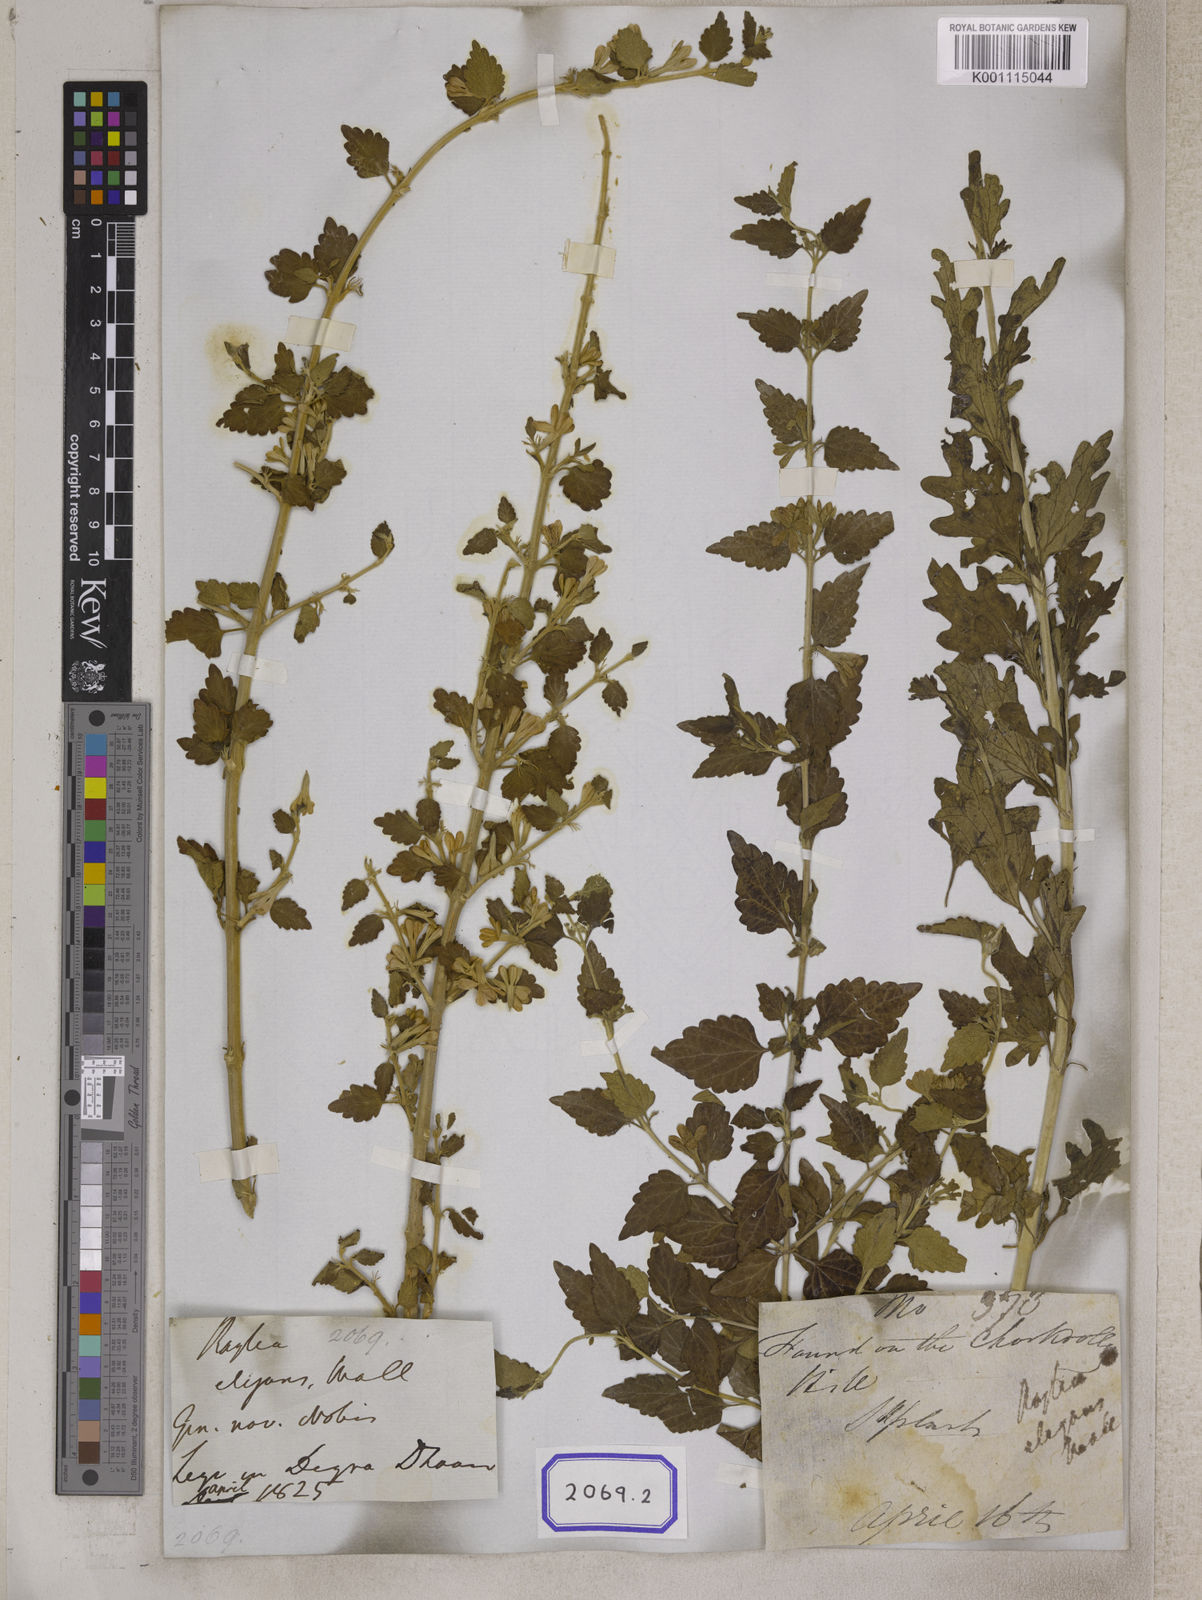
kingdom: Plantae
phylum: Tracheophyta
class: Magnoliopsida
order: Lamiales
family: Lamiaceae
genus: Roylea
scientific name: Roylea
